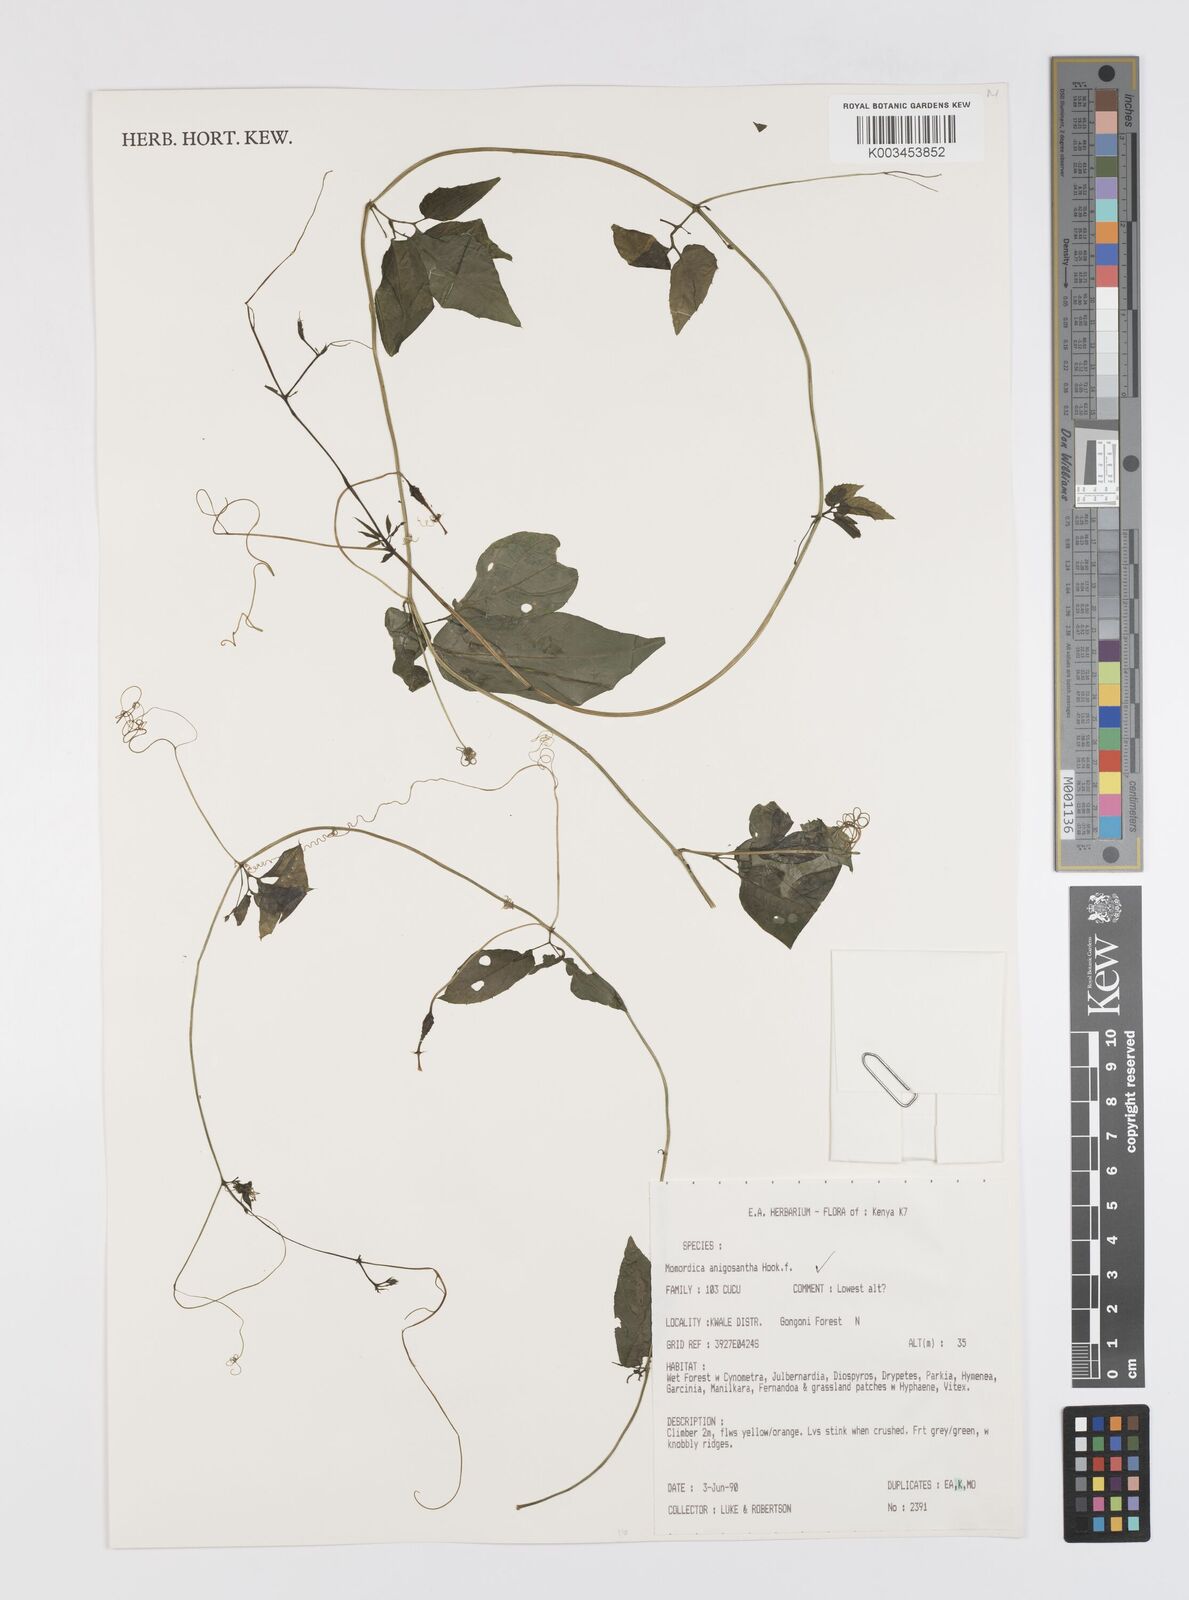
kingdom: Plantae
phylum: Tracheophyta
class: Magnoliopsida
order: Cucurbitales
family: Cucurbitaceae
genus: Momordica
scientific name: Momordica anigosantha
